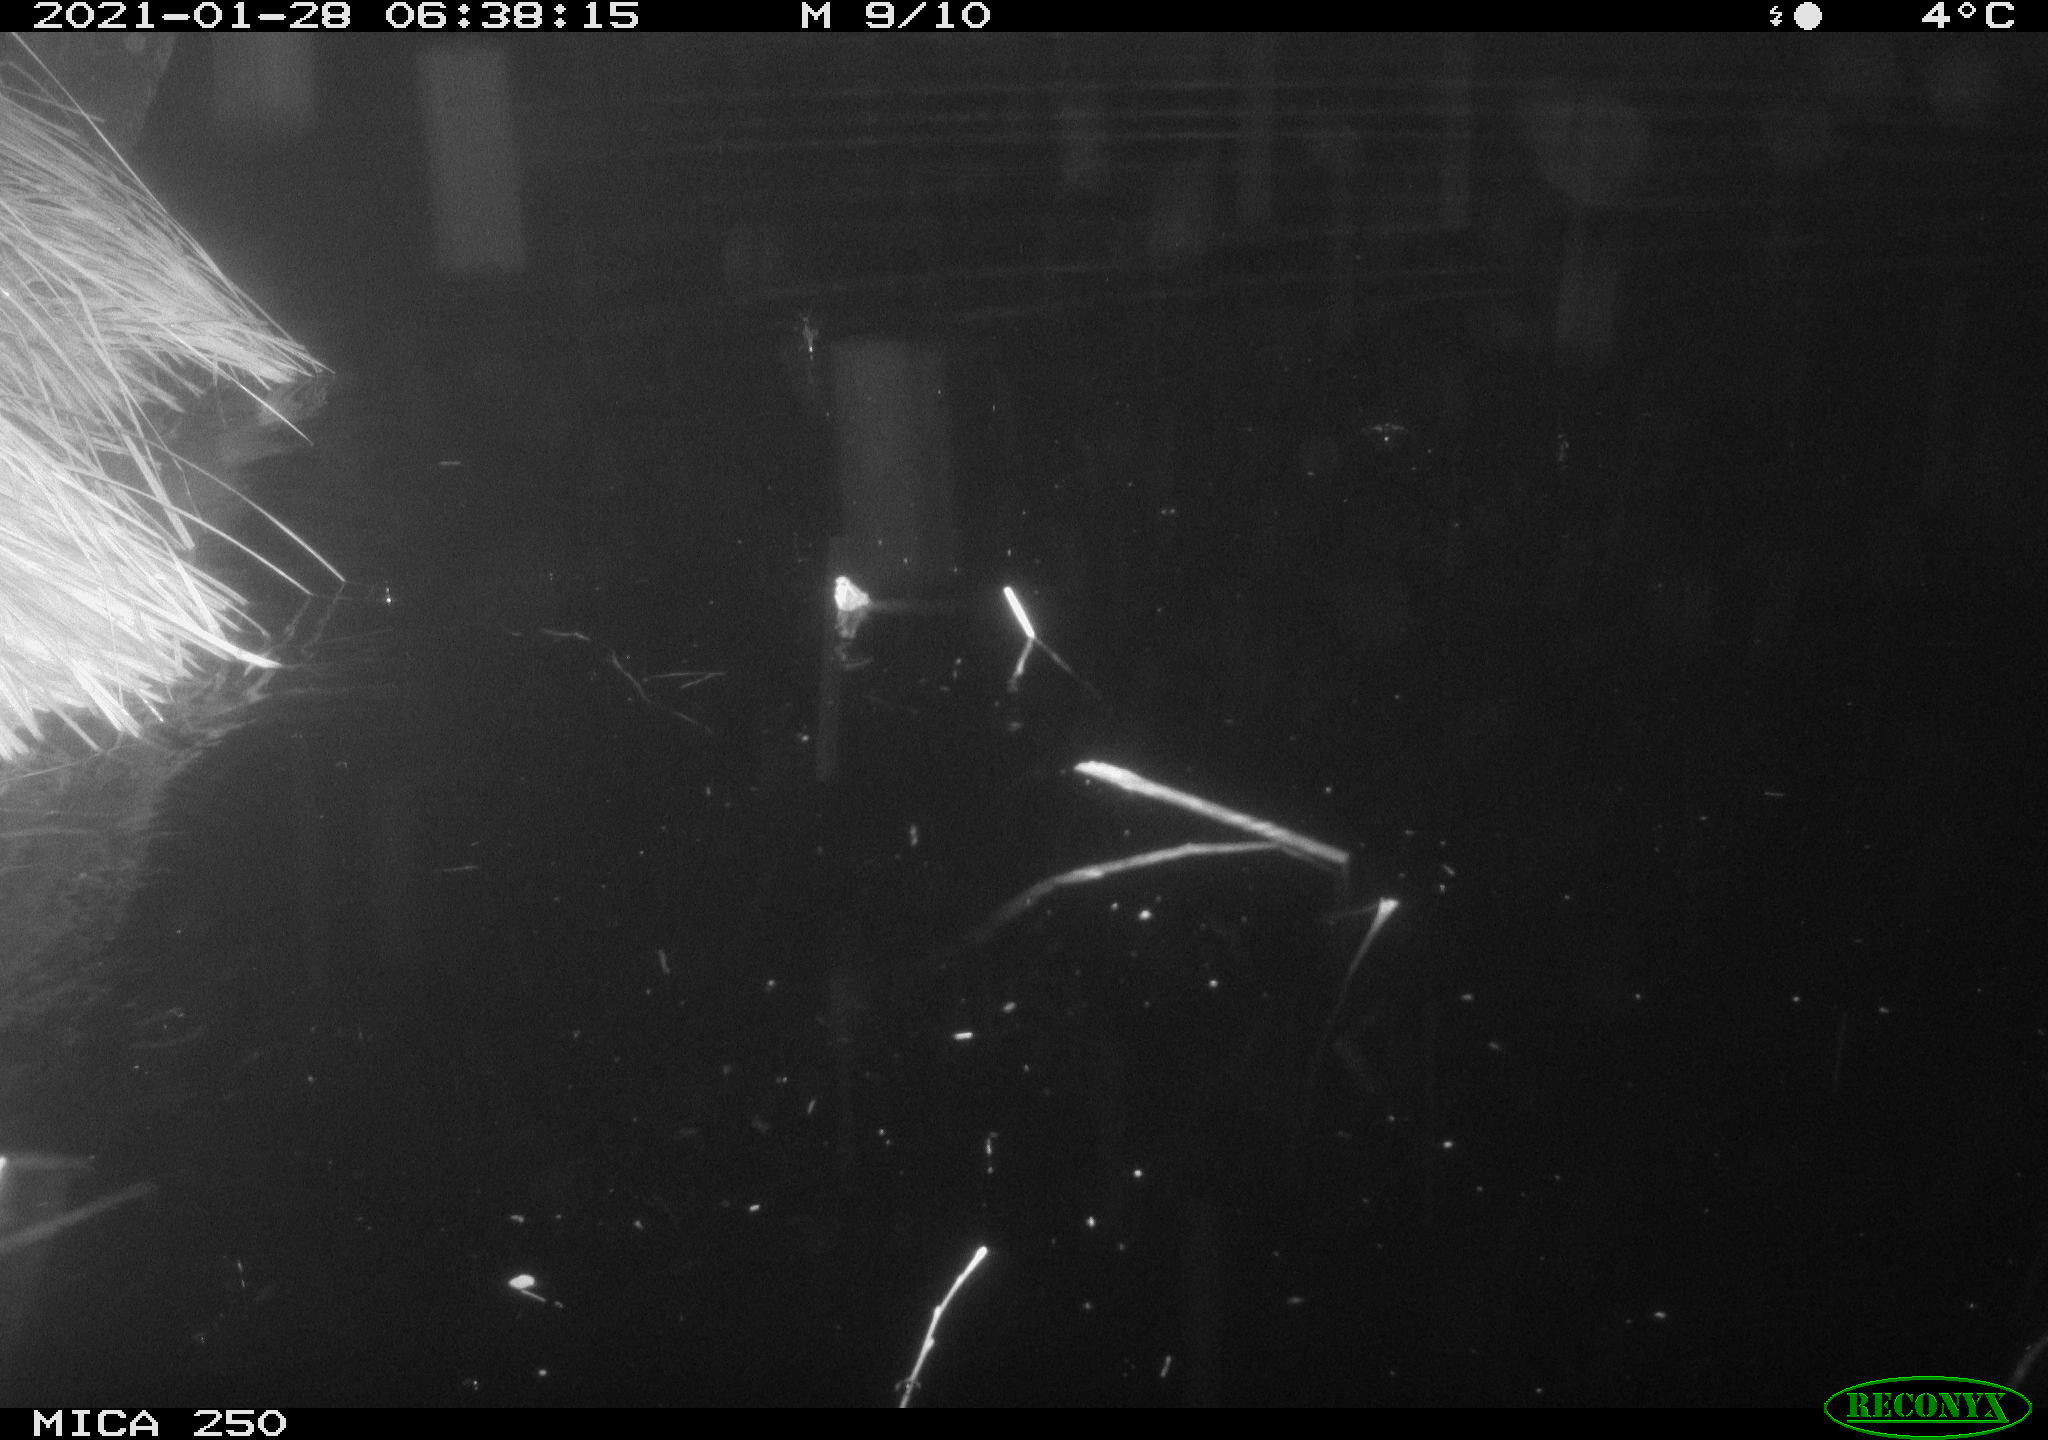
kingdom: Animalia
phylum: Chordata
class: Mammalia
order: Rodentia
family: Castoridae
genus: Castor
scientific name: Castor fiber
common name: Eurasian beaver
